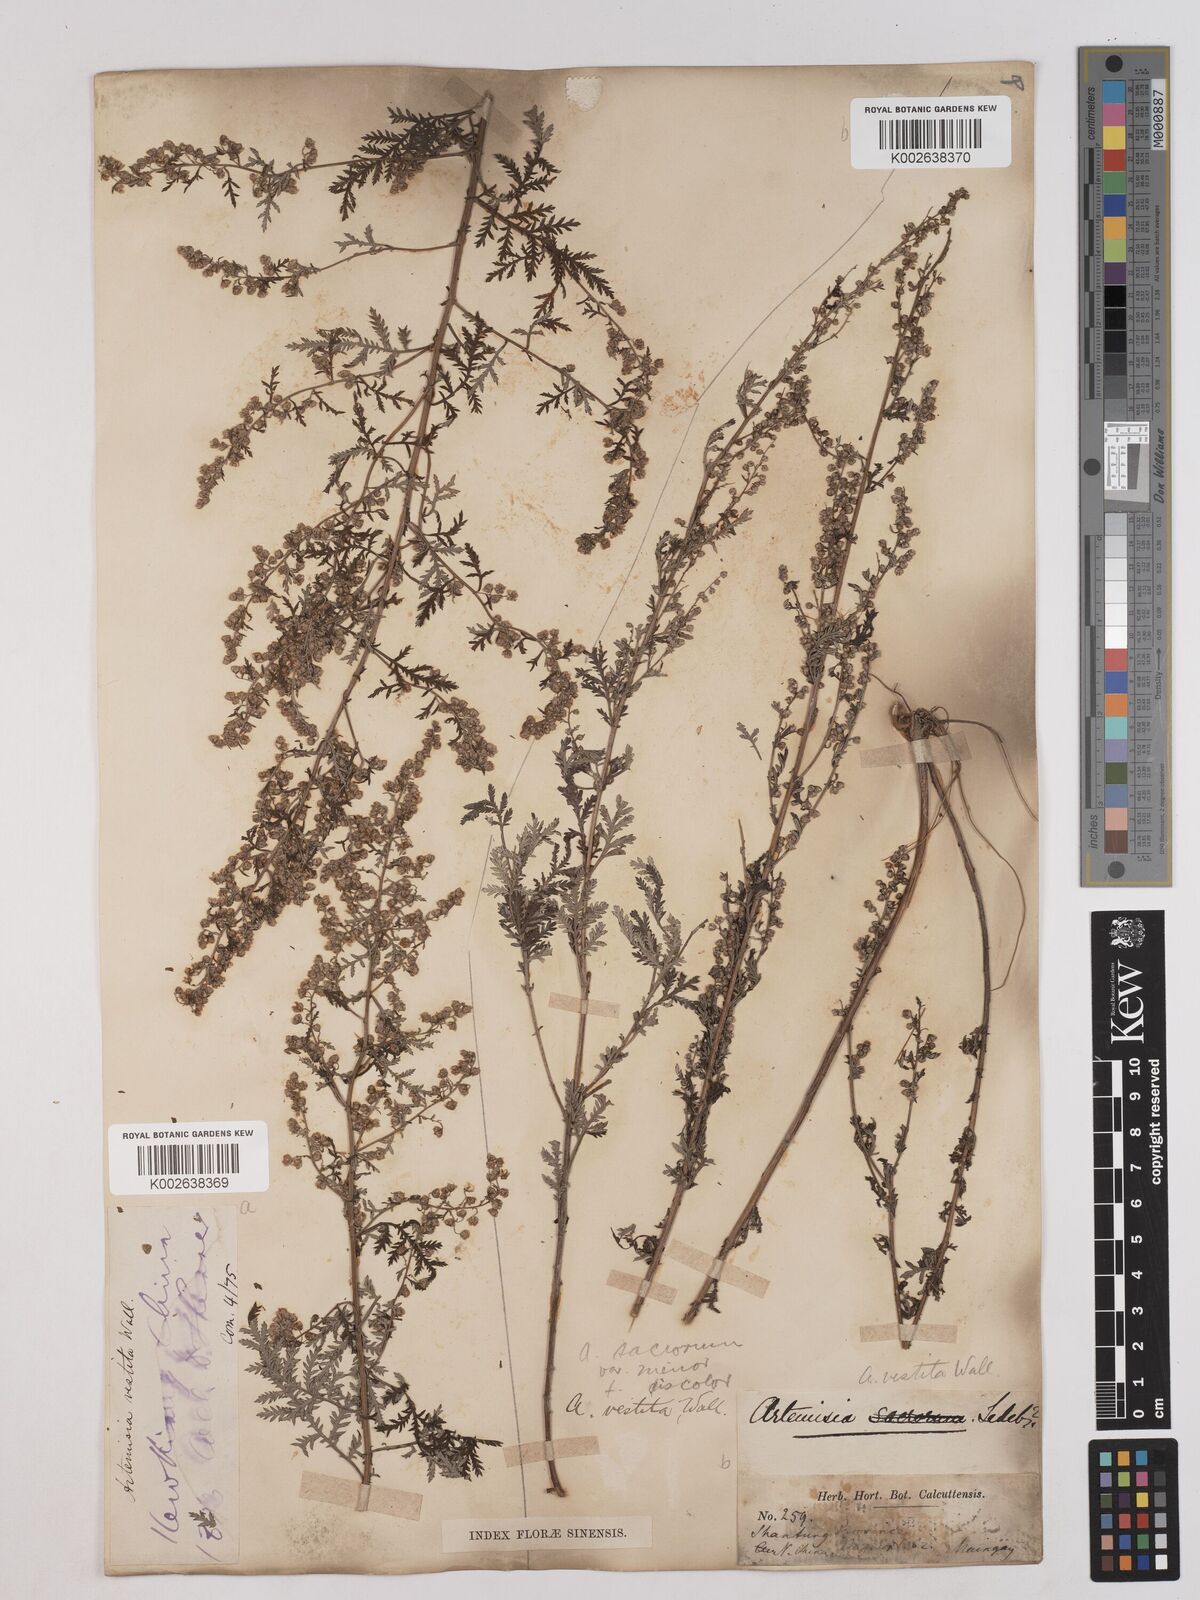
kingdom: Plantae
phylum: Tracheophyta
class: Magnoliopsida
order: Asterales
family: Asteraceae
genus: Artemisia
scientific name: Artemisia gmelinii
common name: Gmelin's wormwood
